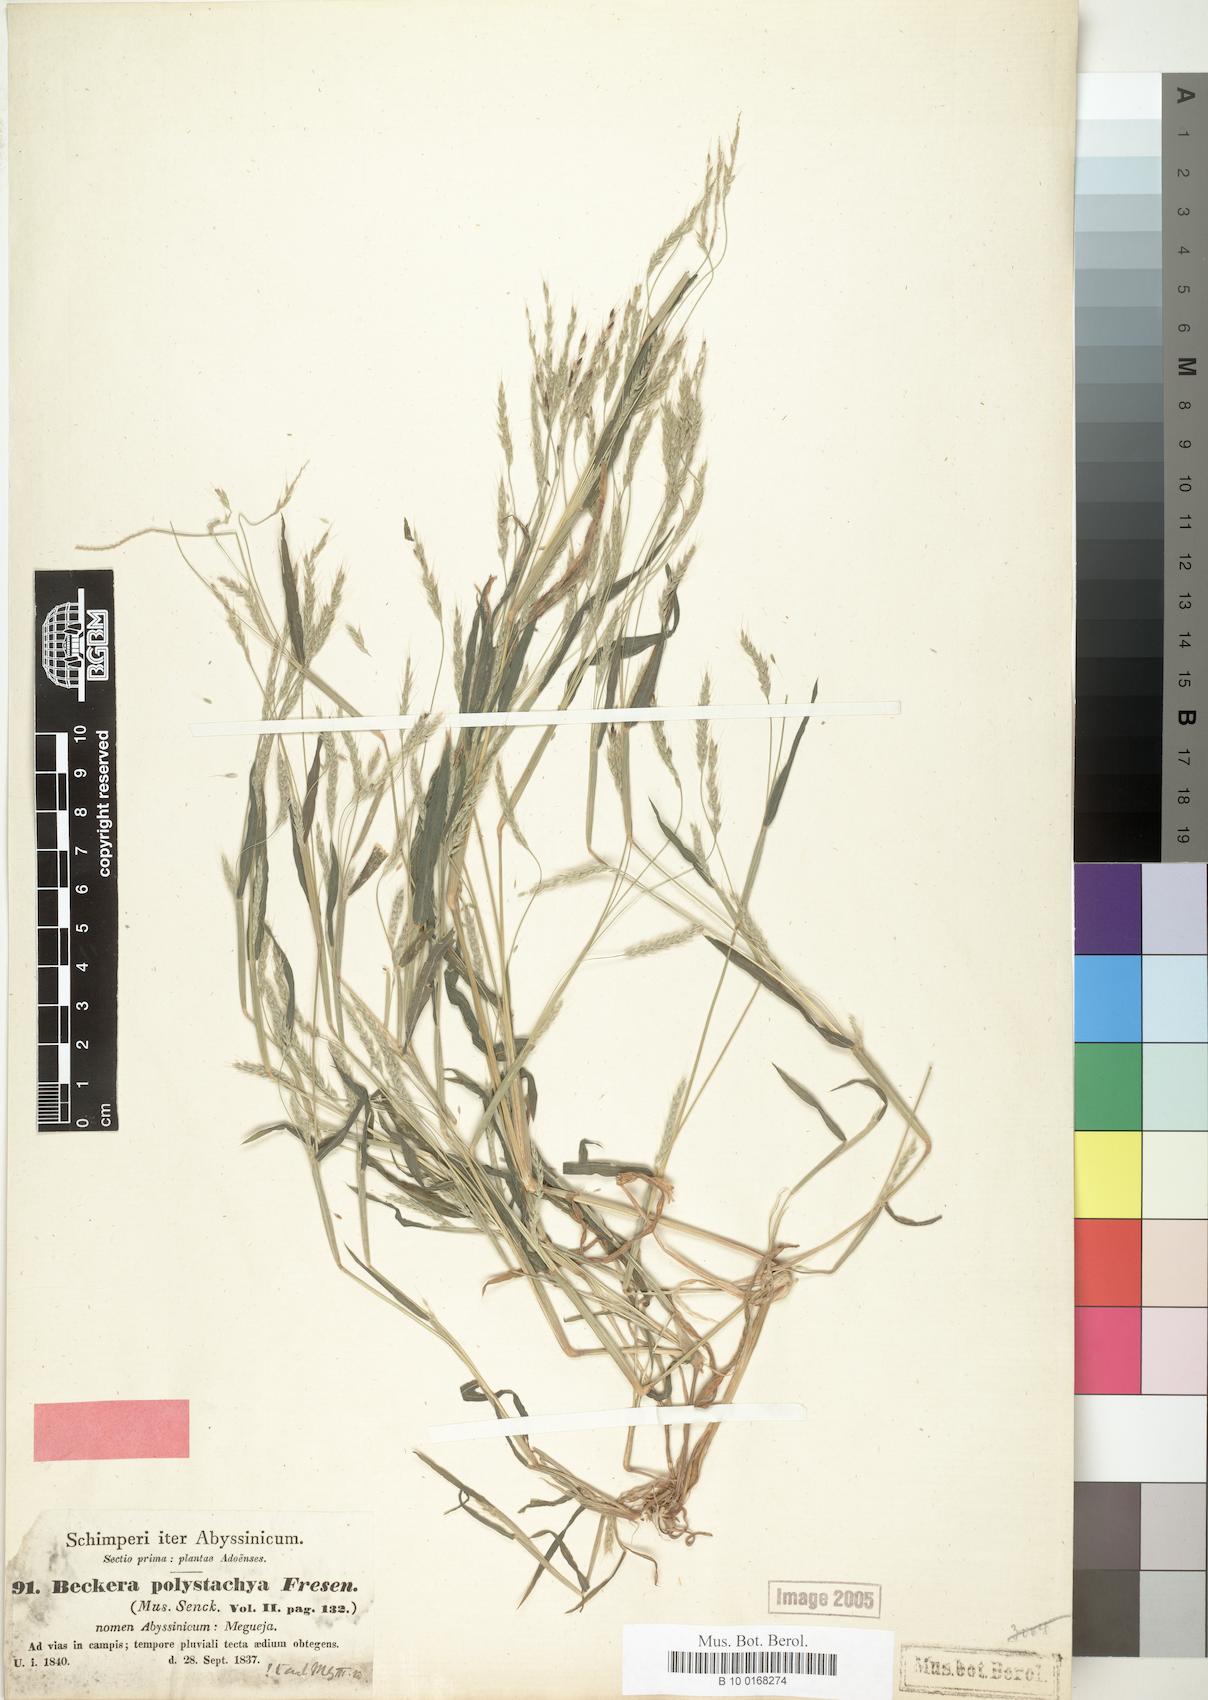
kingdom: Plantae
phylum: Tracheophyta
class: Liliopsida
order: Poales
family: Poaceae
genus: Snowdenia
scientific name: Snowdenia polystachya
